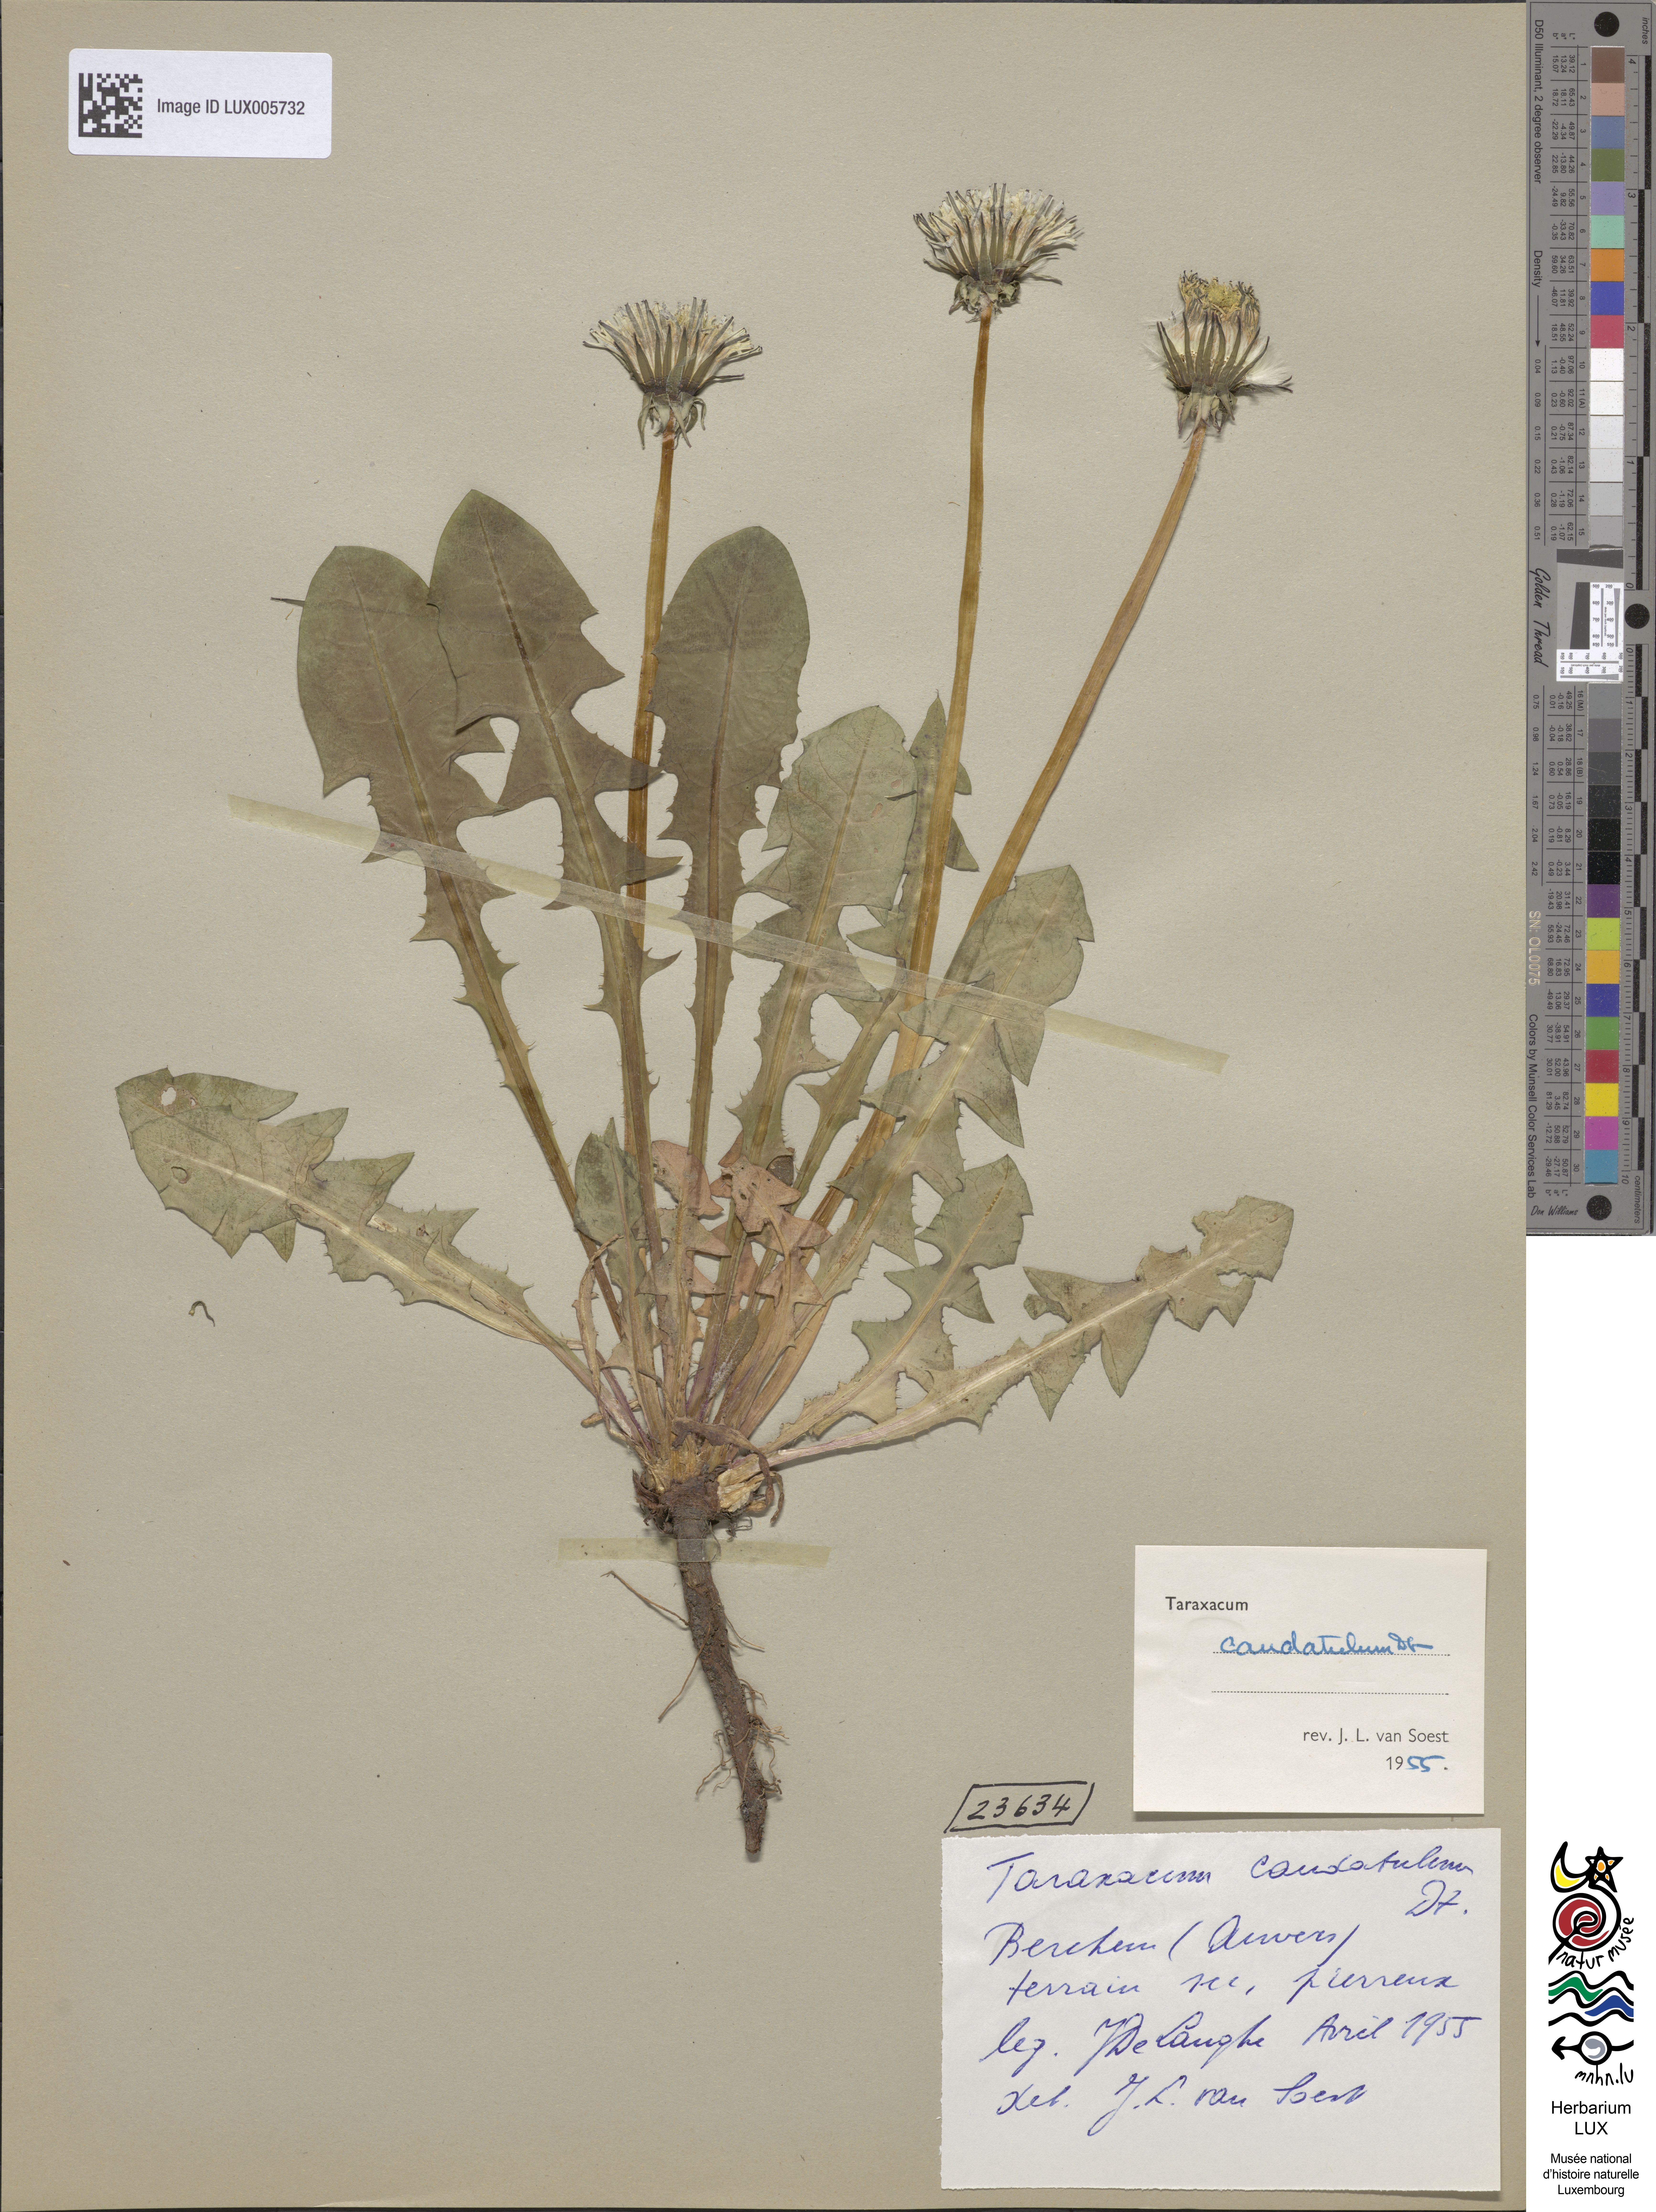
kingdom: Plantae
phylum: Tracheophyta
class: Magnoliopsida
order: Asterales
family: Asteraceae
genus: Taraxacum
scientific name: Taraxacum caudatulum
